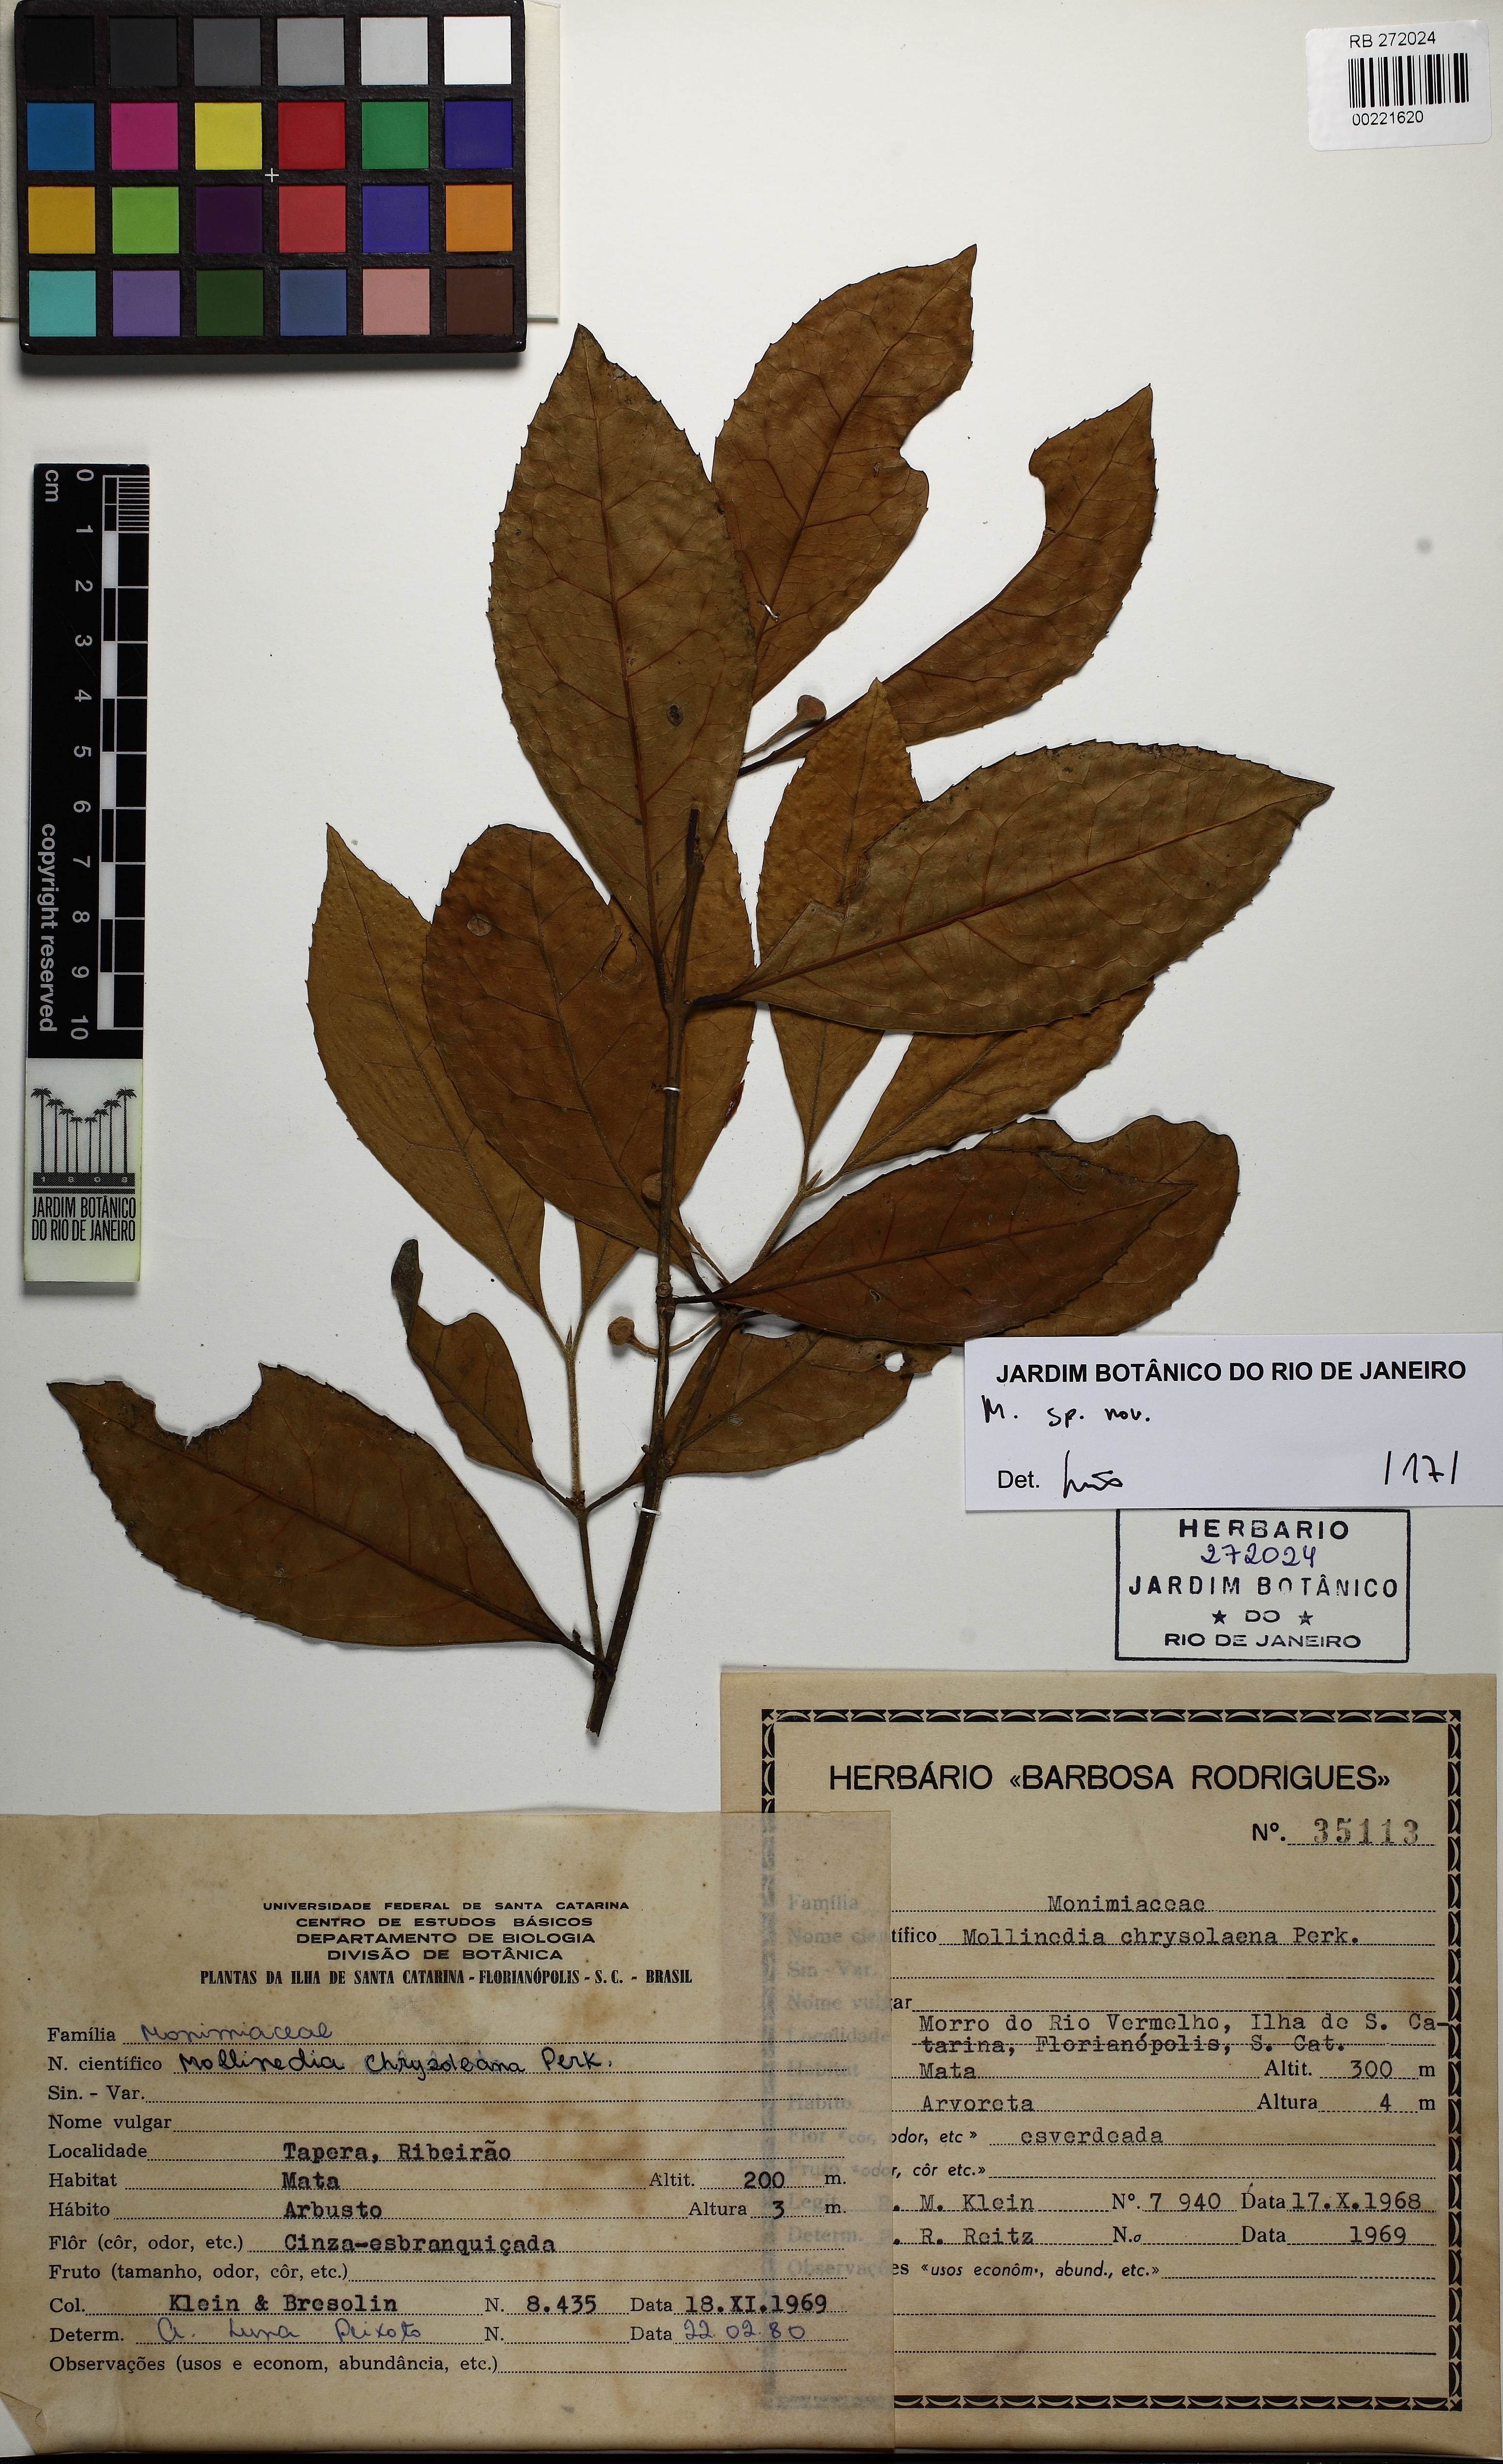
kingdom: Plantae
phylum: Tracheophyta
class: Magnoliopsida
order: Laurales
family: Monimiaceae
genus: Mollinedia
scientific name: Mollinedia
